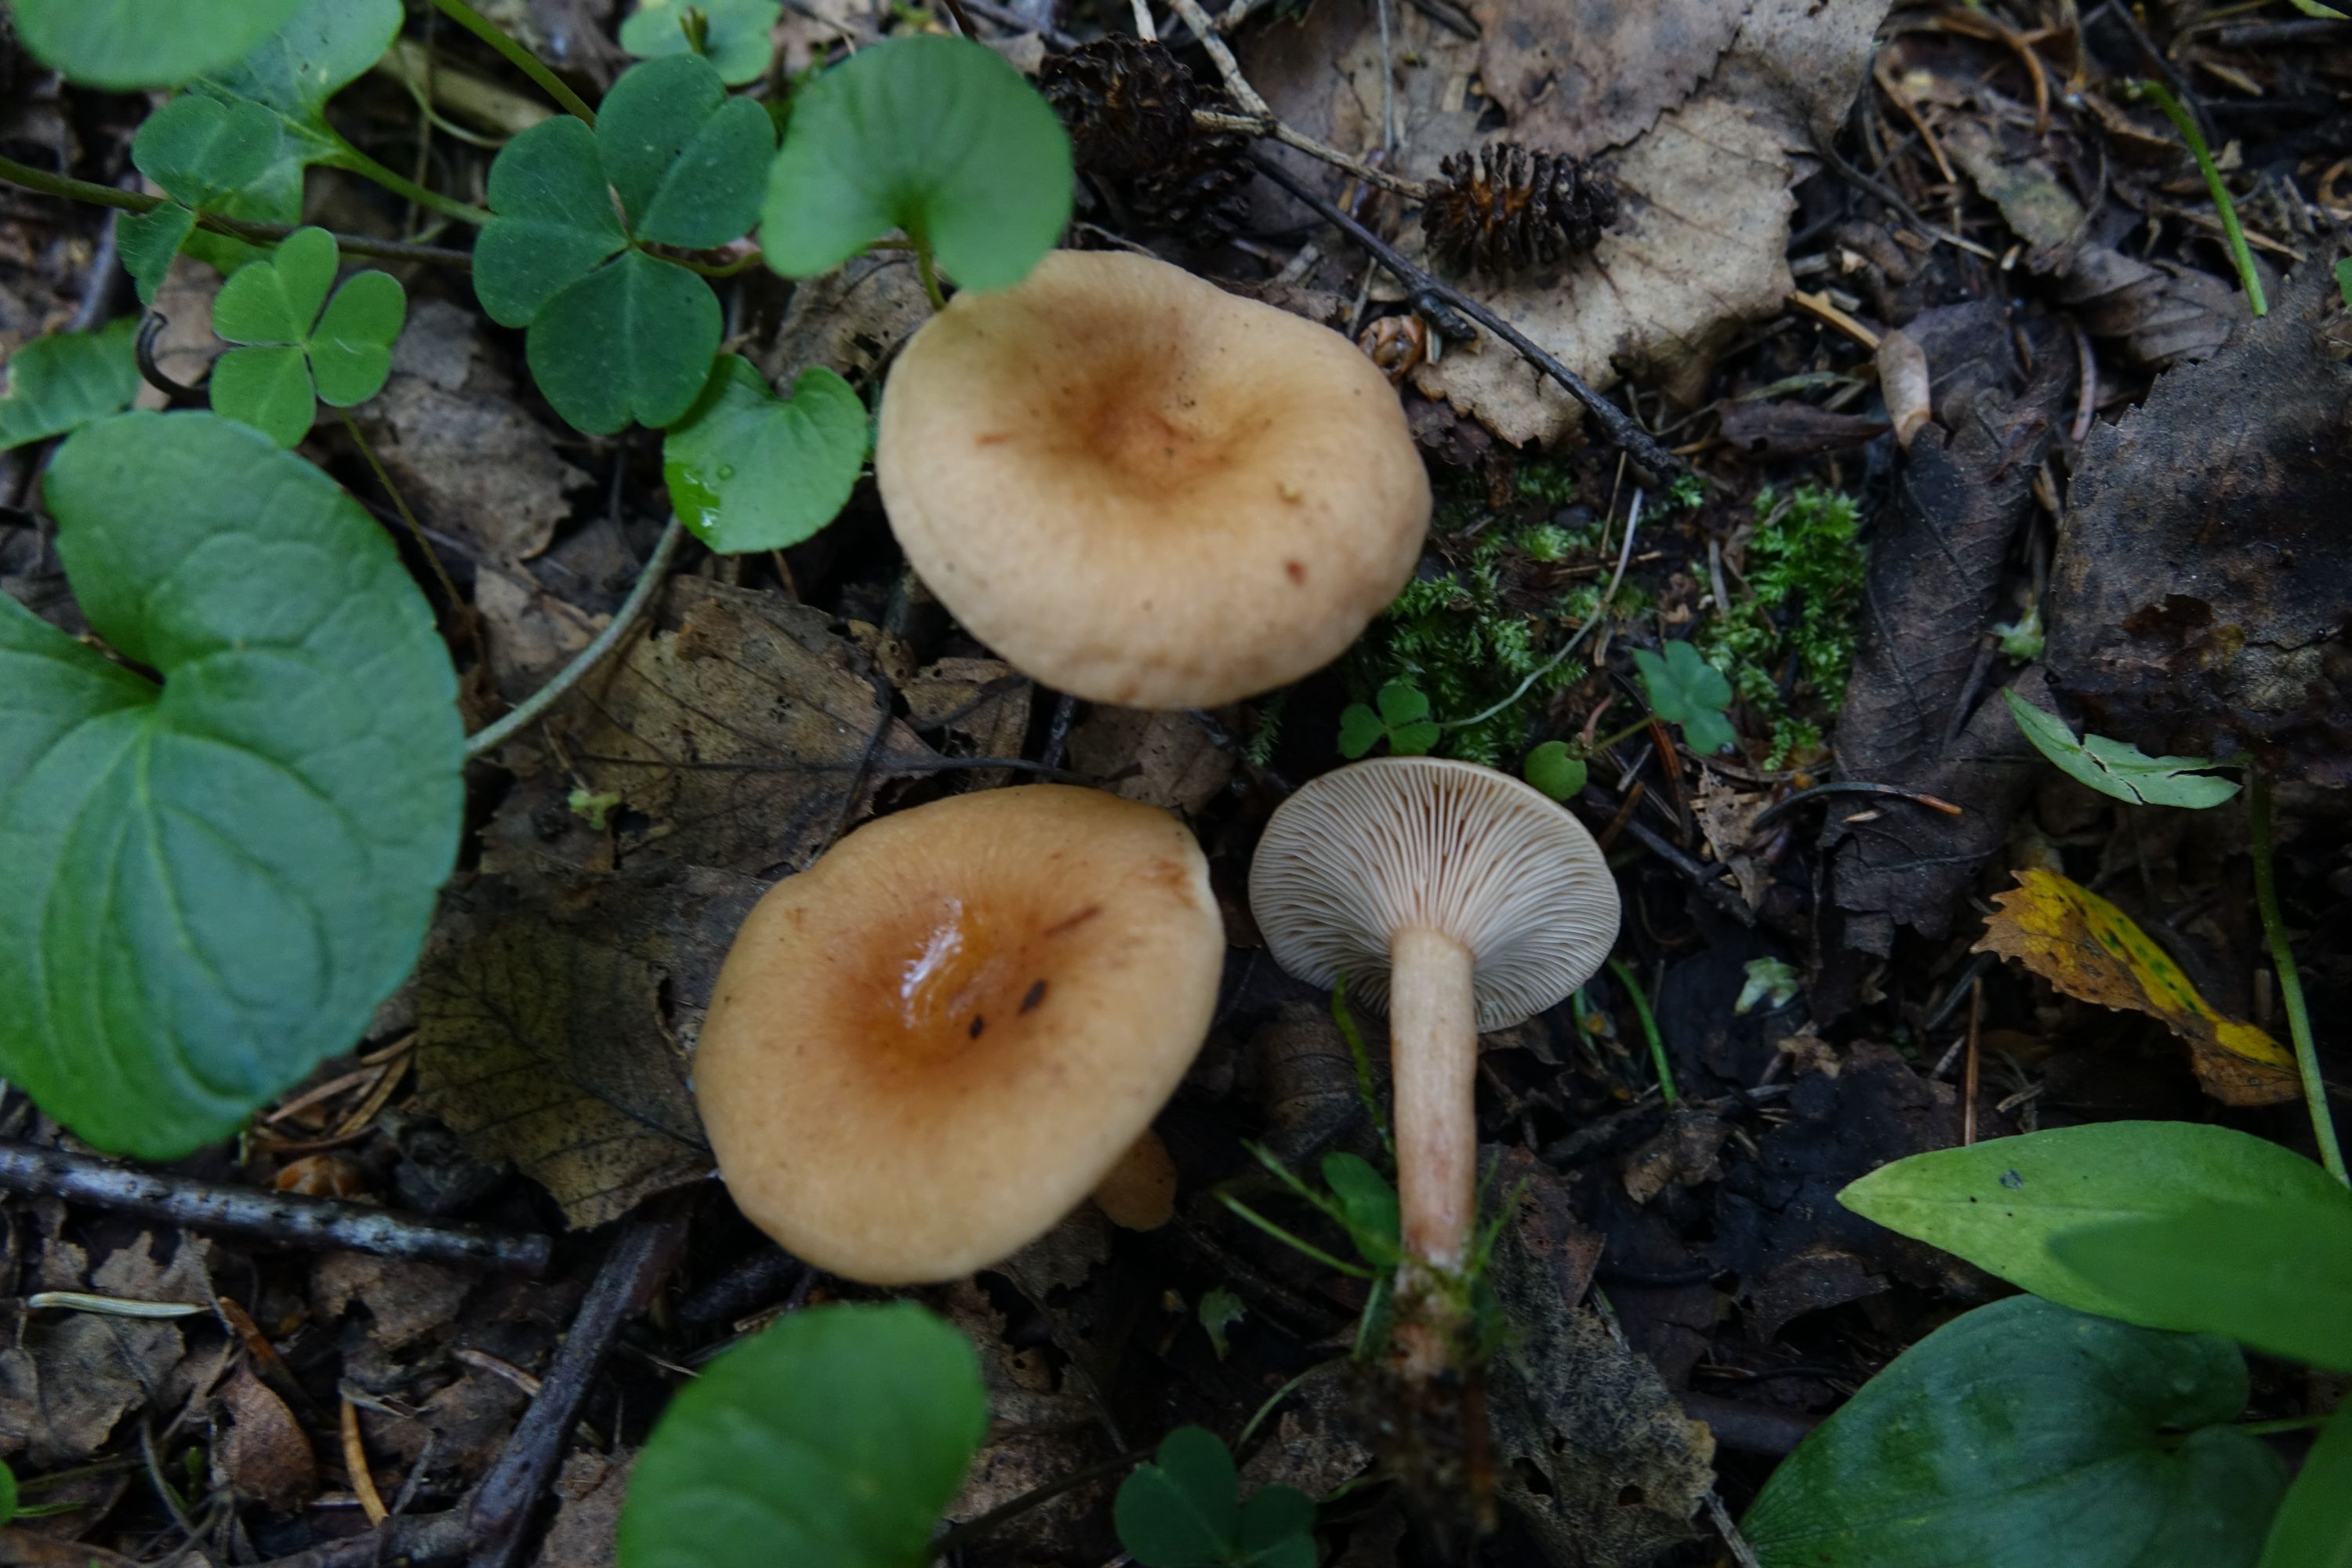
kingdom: Fungi
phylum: Basidiomycota
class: Agaricomycetes
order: Russulales
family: Russulaceae
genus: Lactarius
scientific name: Lactarius tabidus
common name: Birch milkcap
